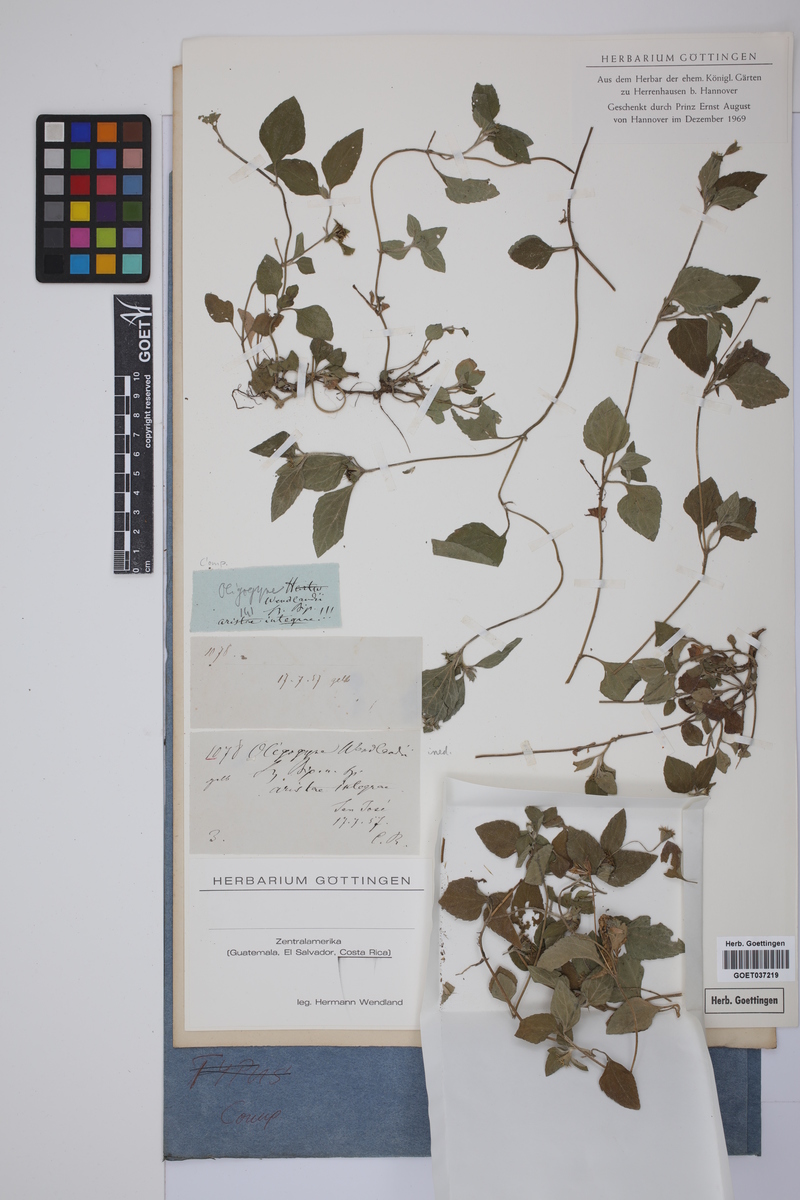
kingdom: Plantae
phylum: Tracheophyta
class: Magnoliopsida
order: Asterales
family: Asteraceae
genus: Calyptocarpus
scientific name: Calyptocarpus
